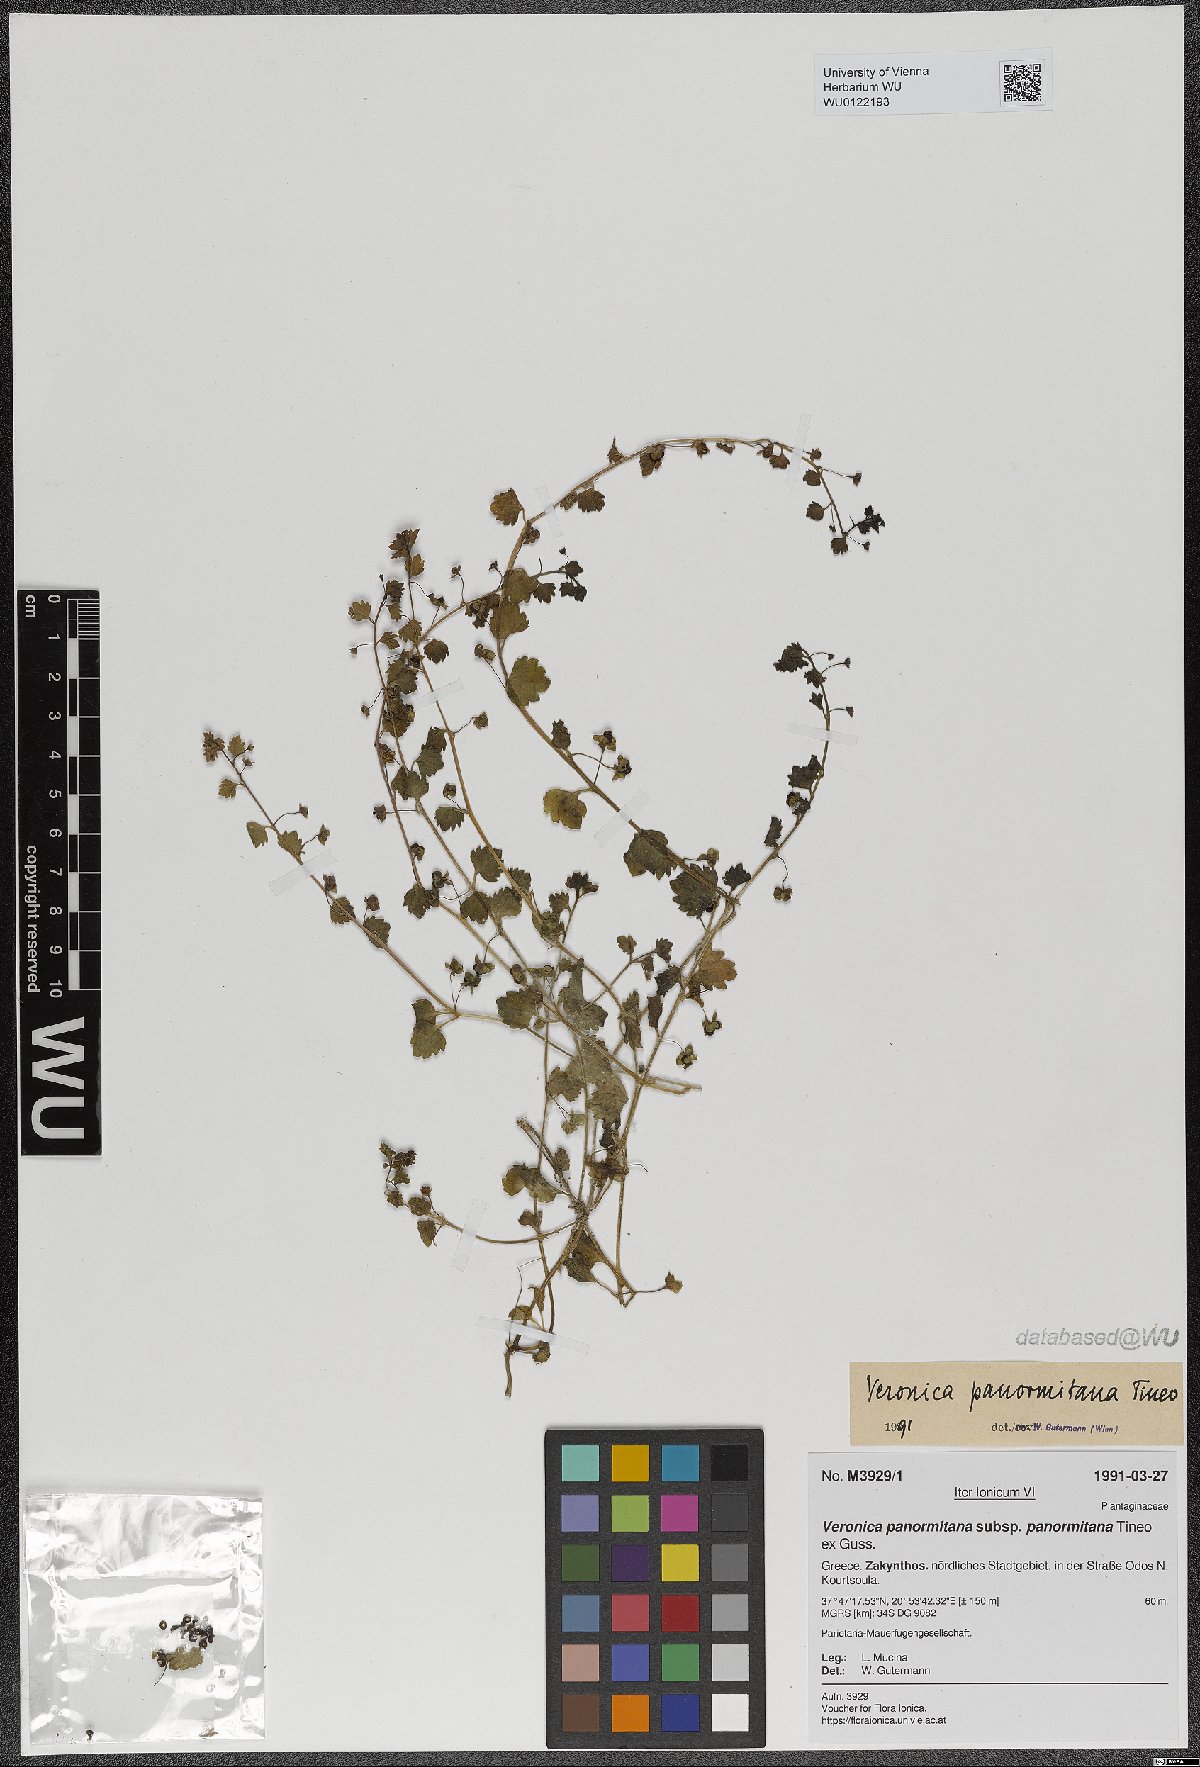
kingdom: Plantae
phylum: Tracheophyta
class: Magnoliopsida
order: Lamiales
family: Plantaginaceae
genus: Veronica
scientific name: Veronica panormitana
